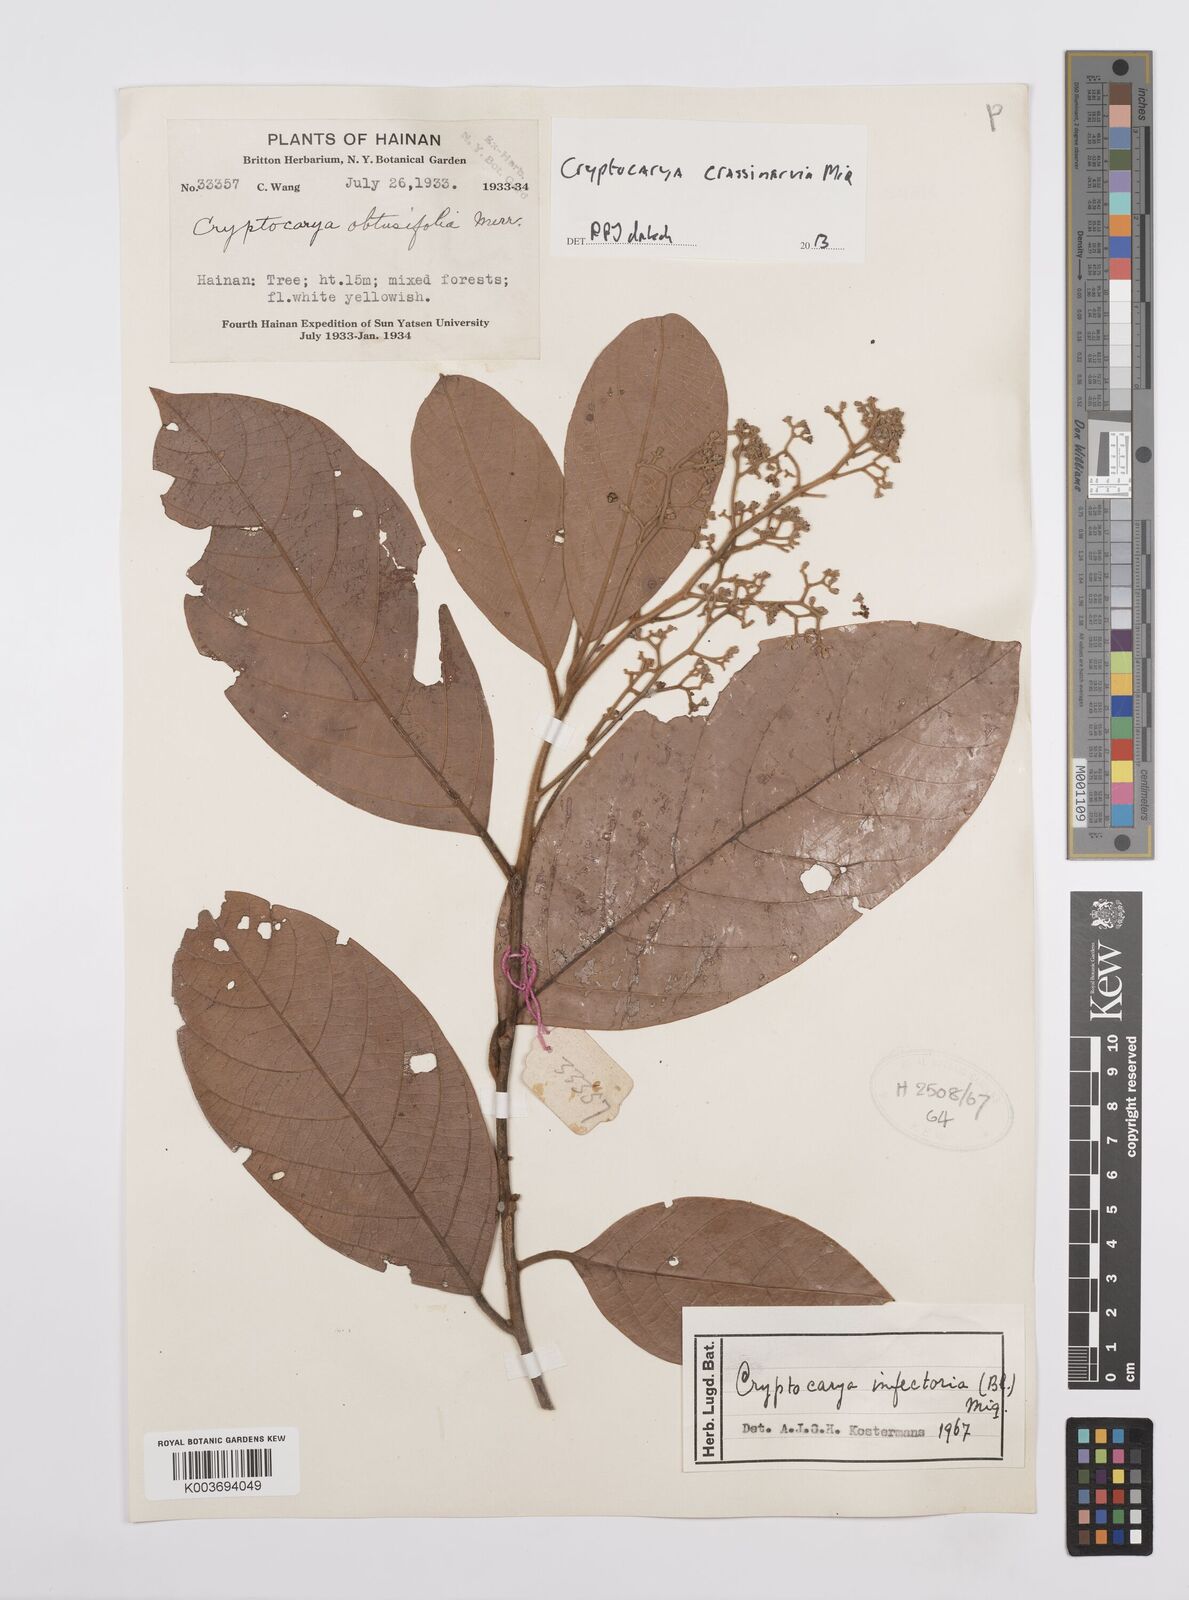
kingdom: Plantae
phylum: Tracheophyta
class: Magnoliopsida
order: Laurales
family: Lauraceae
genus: Cryptocarya
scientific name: Cryptocarya diversifolia
